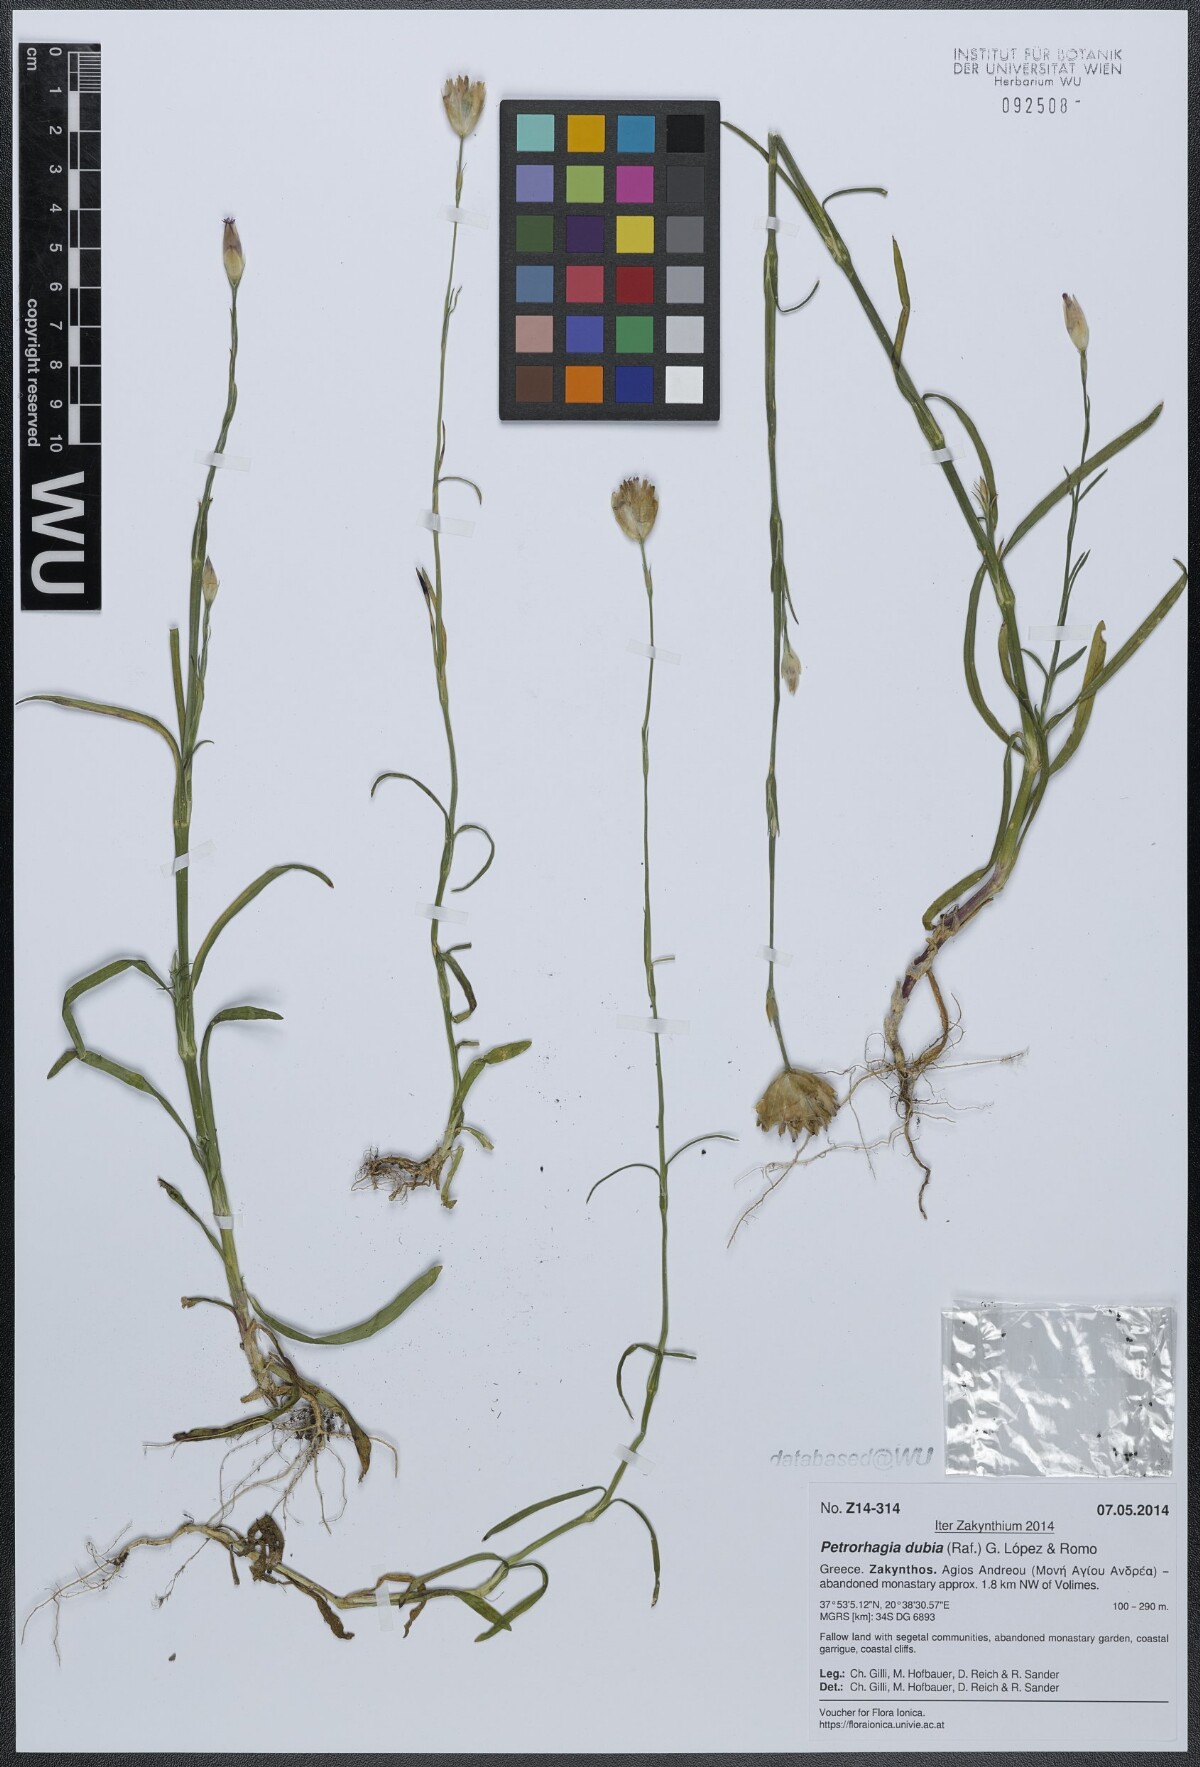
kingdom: Plantae
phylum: Tracheophyta
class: Magnoliopsida
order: Caryophyllales
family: Caryophyllaceae
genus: Petrorhagia
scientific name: Petrorhagia dubia
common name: Hairypink
